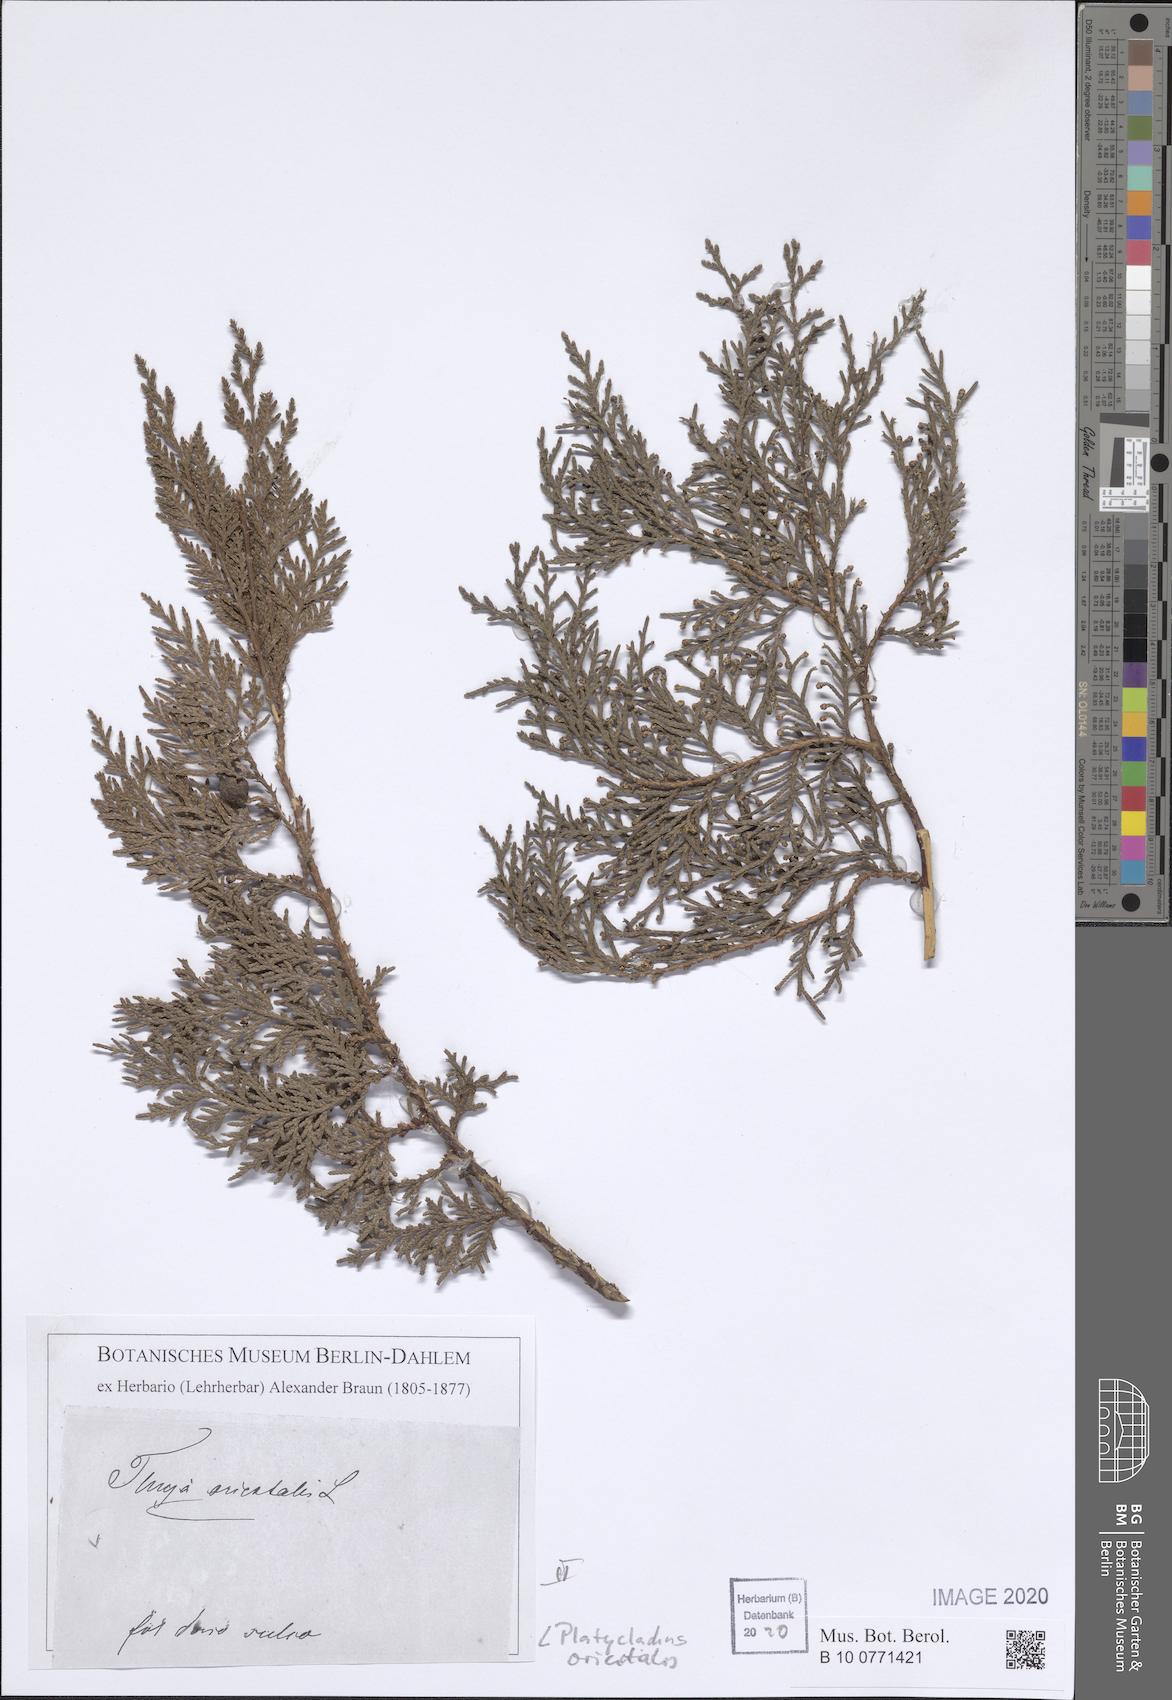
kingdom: Plantae
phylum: Tracheophyta
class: Pinopsida
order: Pinales
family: Cupressaceae
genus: Platycladus
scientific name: Platycladus orientalis
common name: Chinese thuja
